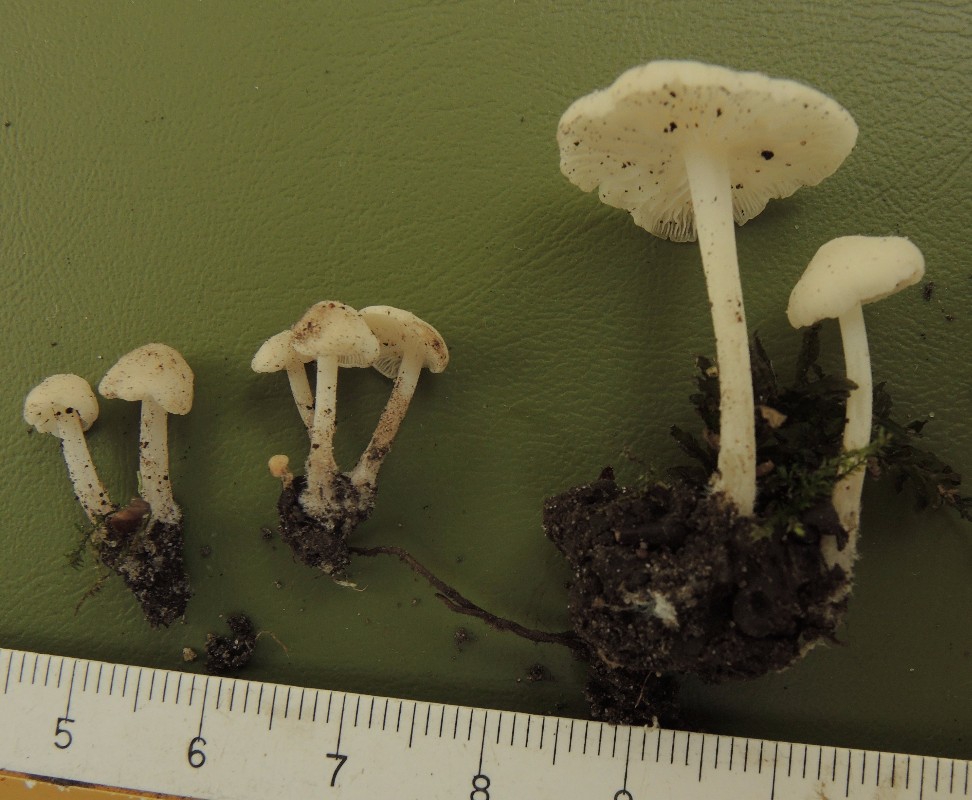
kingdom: Fungi
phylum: Basidiomycota
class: Agaricomycetes
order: Agaricales
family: Mycenaceae
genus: Hemimycena
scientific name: Hemimycena cucullata
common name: tætbladet huesvamp
